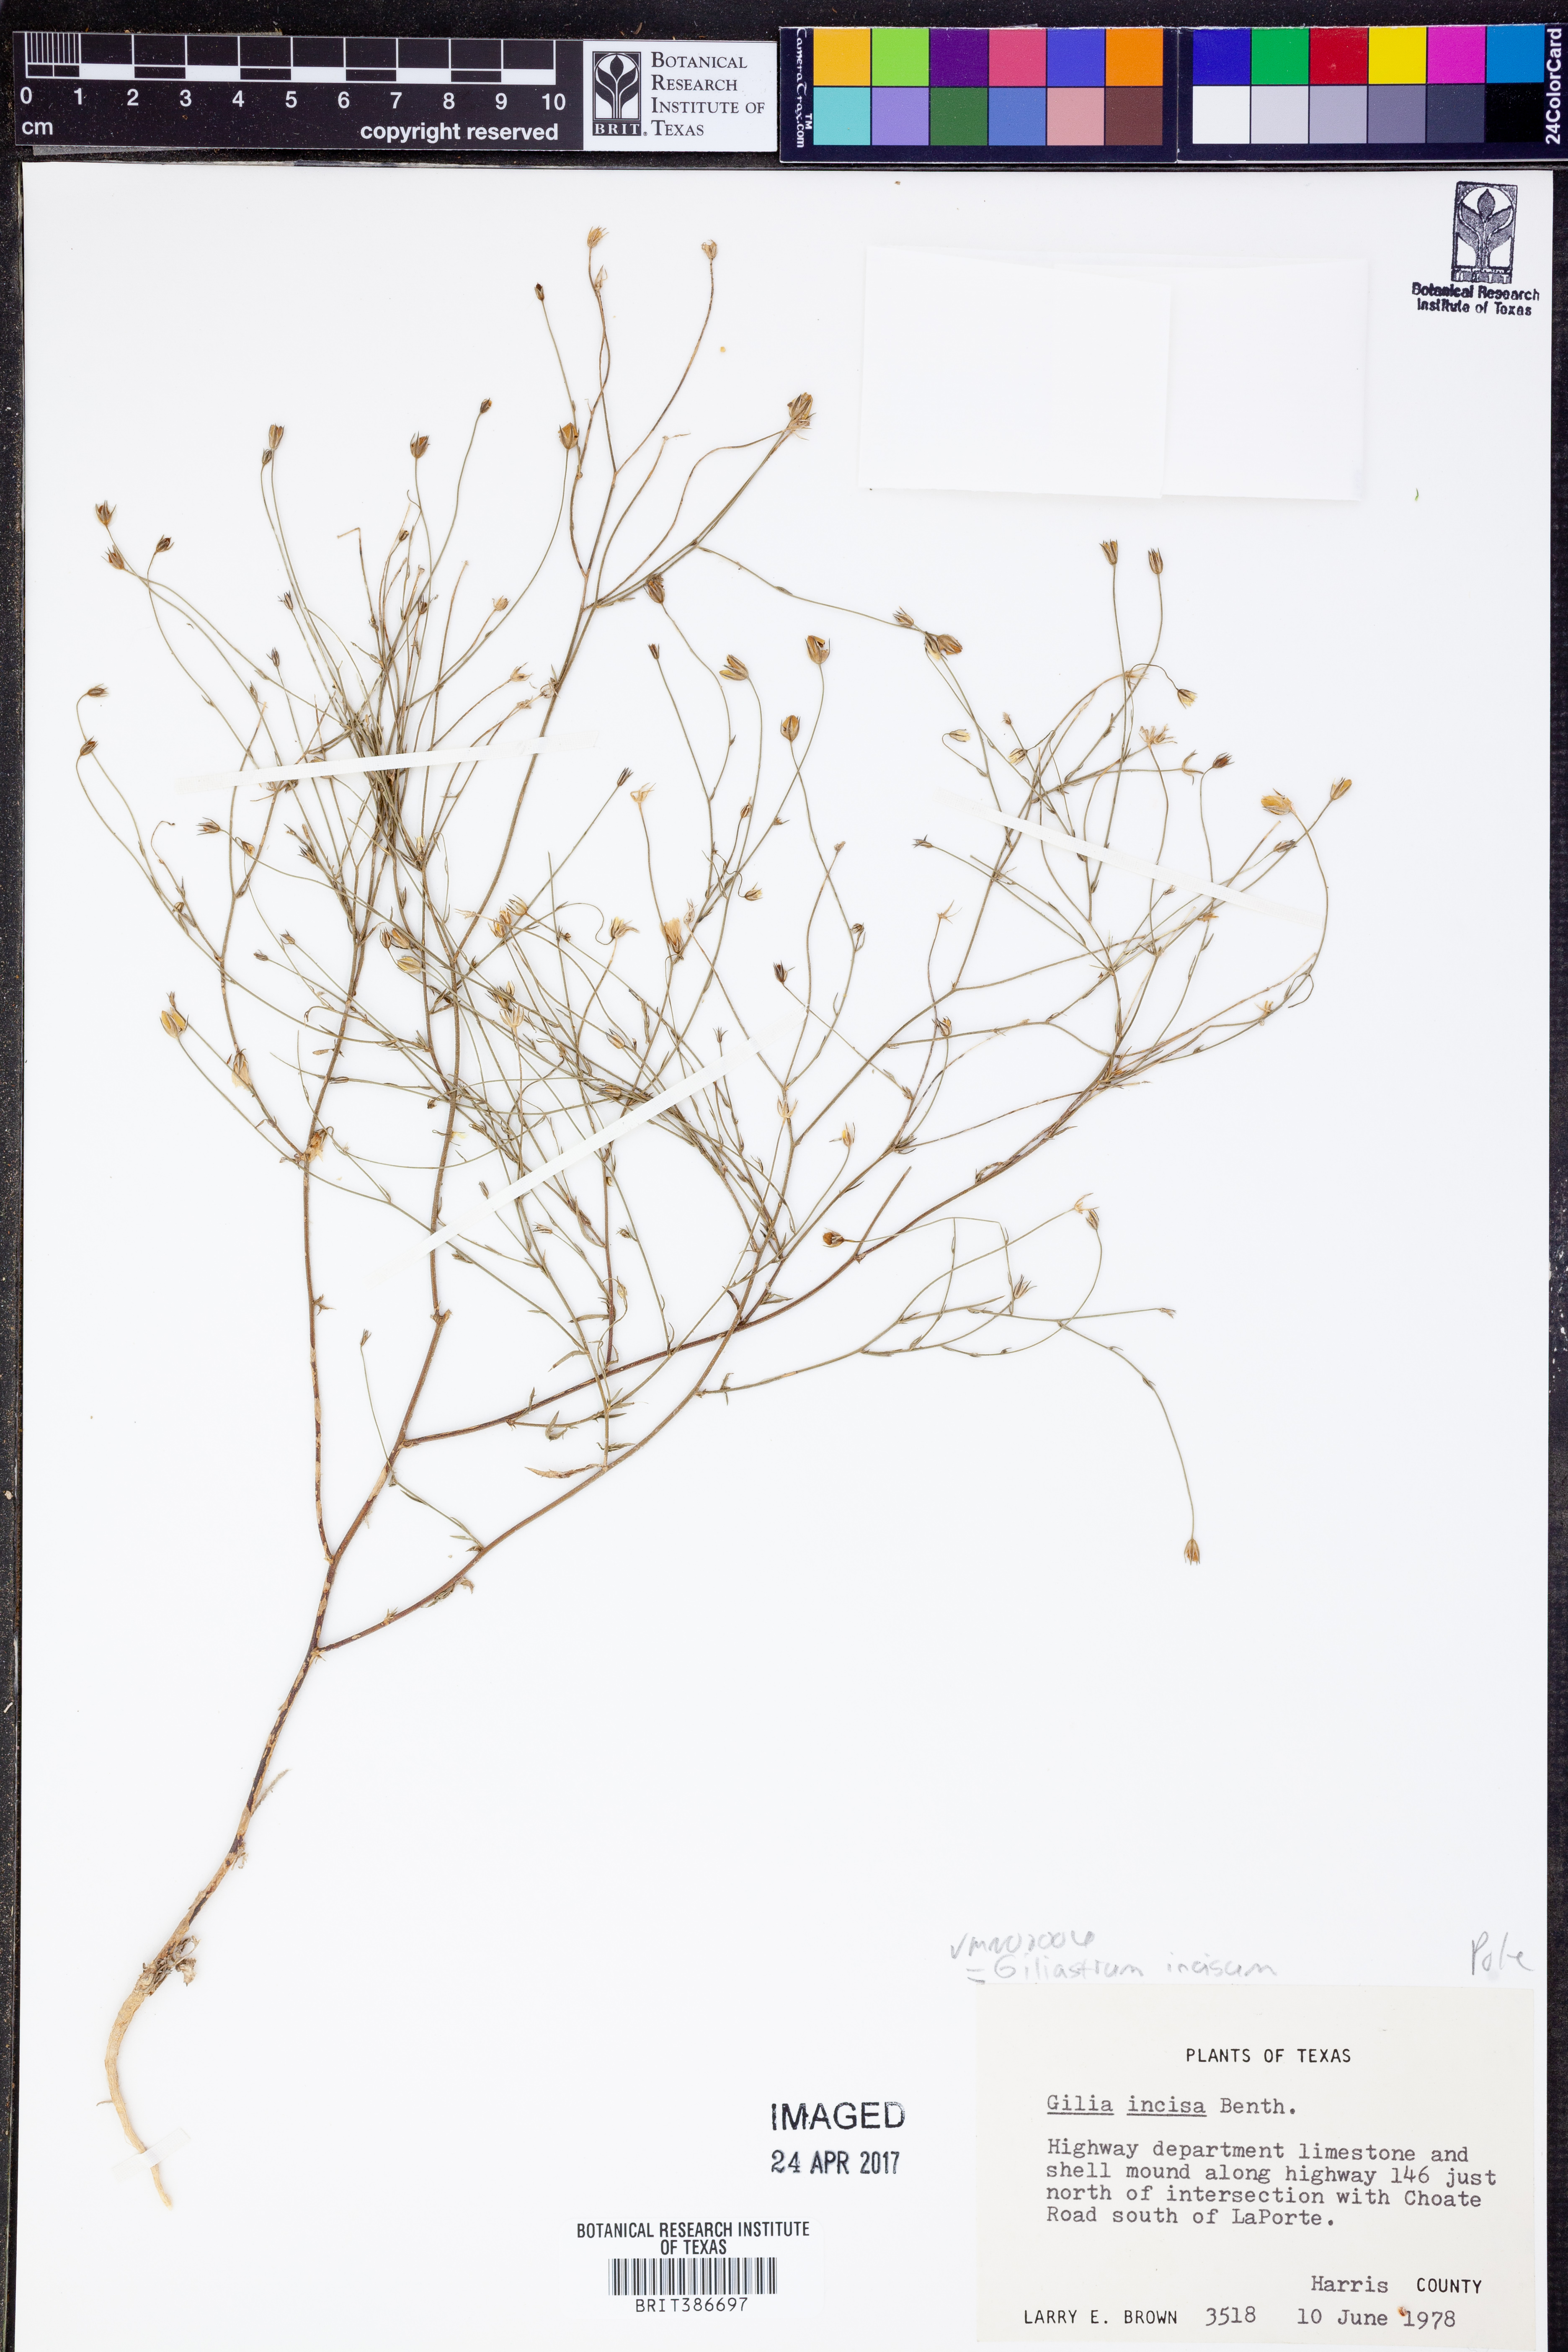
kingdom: Plantae
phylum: Tracheophyta
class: Magnoliopsida
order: Ericales
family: Polemoniaceae
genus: Giliastrum
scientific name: Giliastrum incisum
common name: Splitleaf gilia
